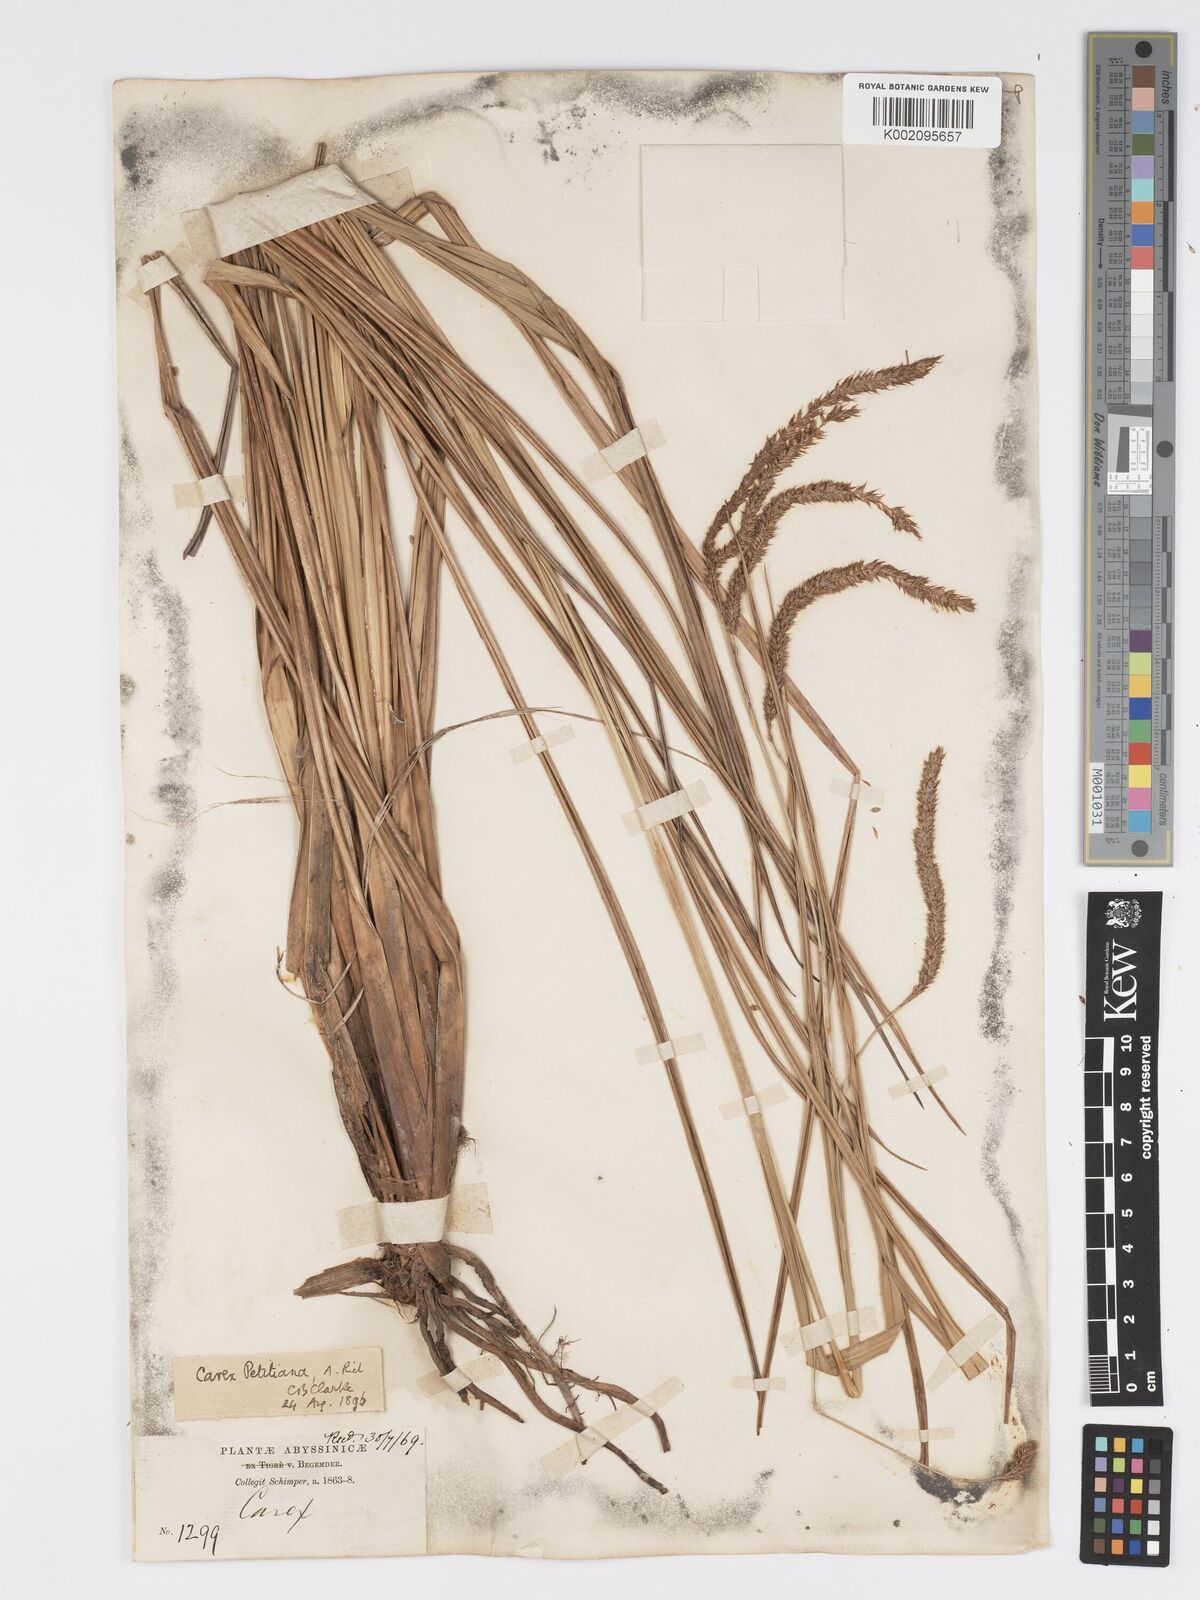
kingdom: Plantae
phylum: Tracheophyta
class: Liliopsida
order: Poales
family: Cyperaceae
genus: Carex
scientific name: Carex petitiana
